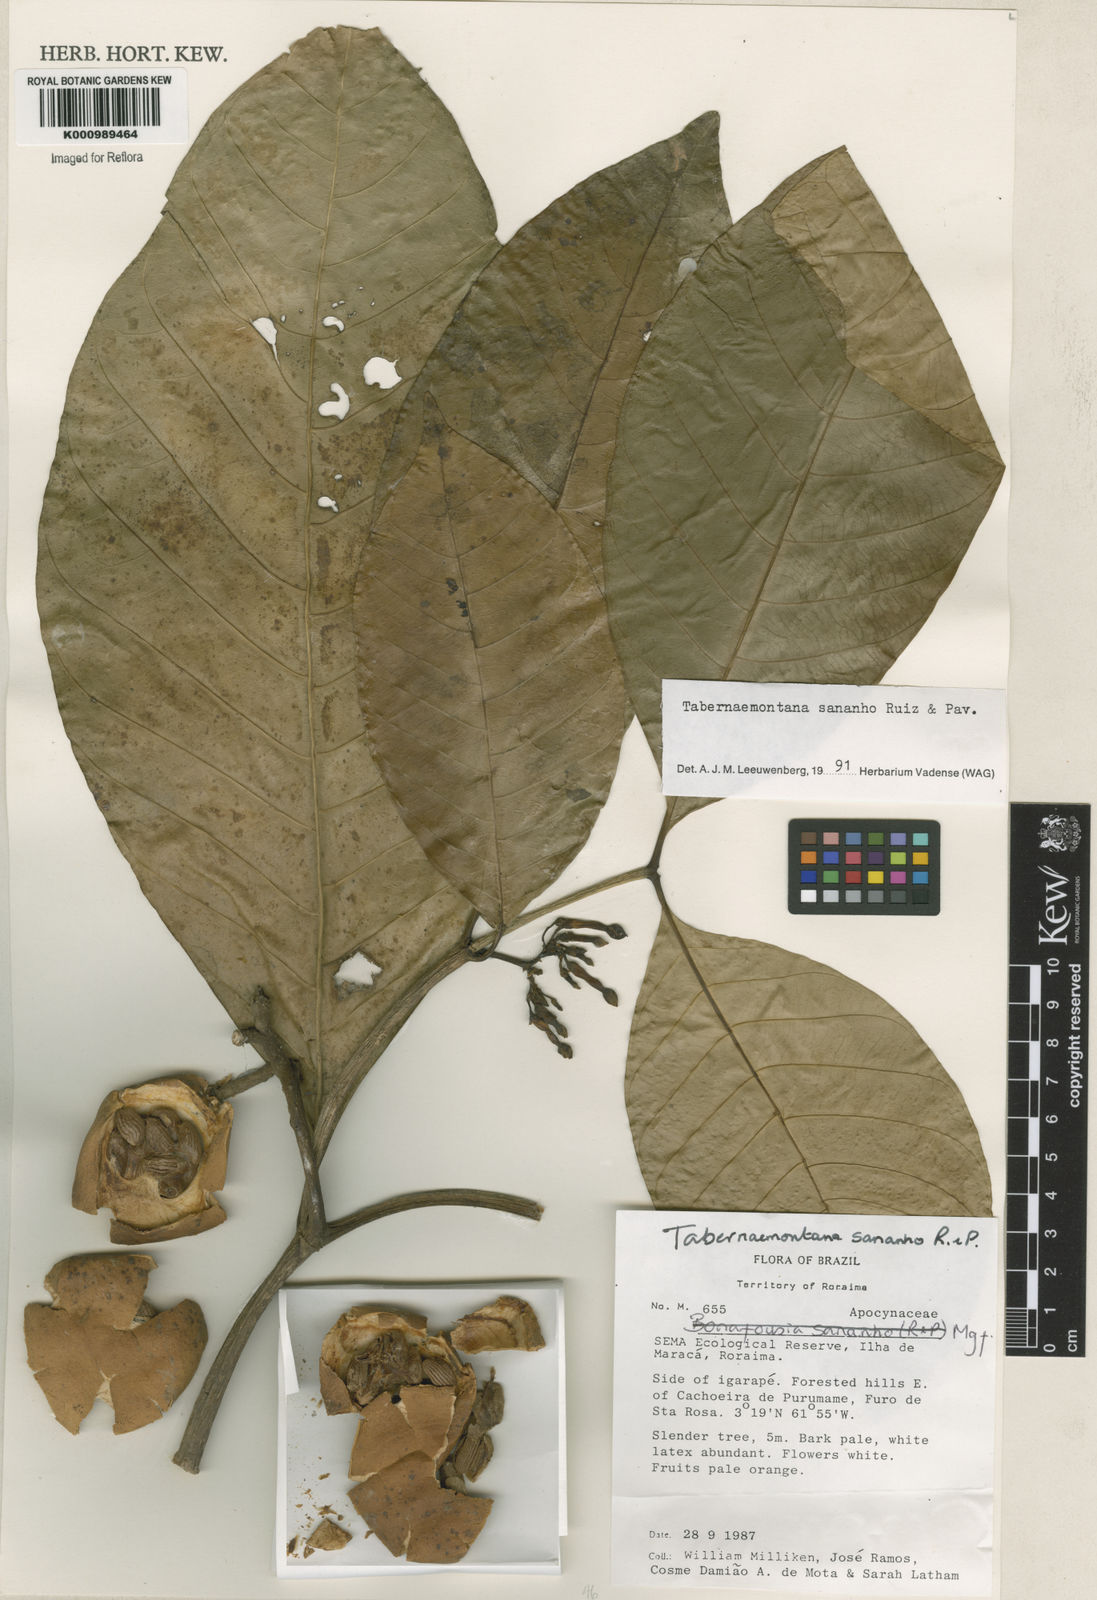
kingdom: Plantae
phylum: Tracheophyta
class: Magnoliopsida
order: Gentianales
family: Apocynaceae
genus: Tabernaemontana
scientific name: Tabernaemontana sananho
